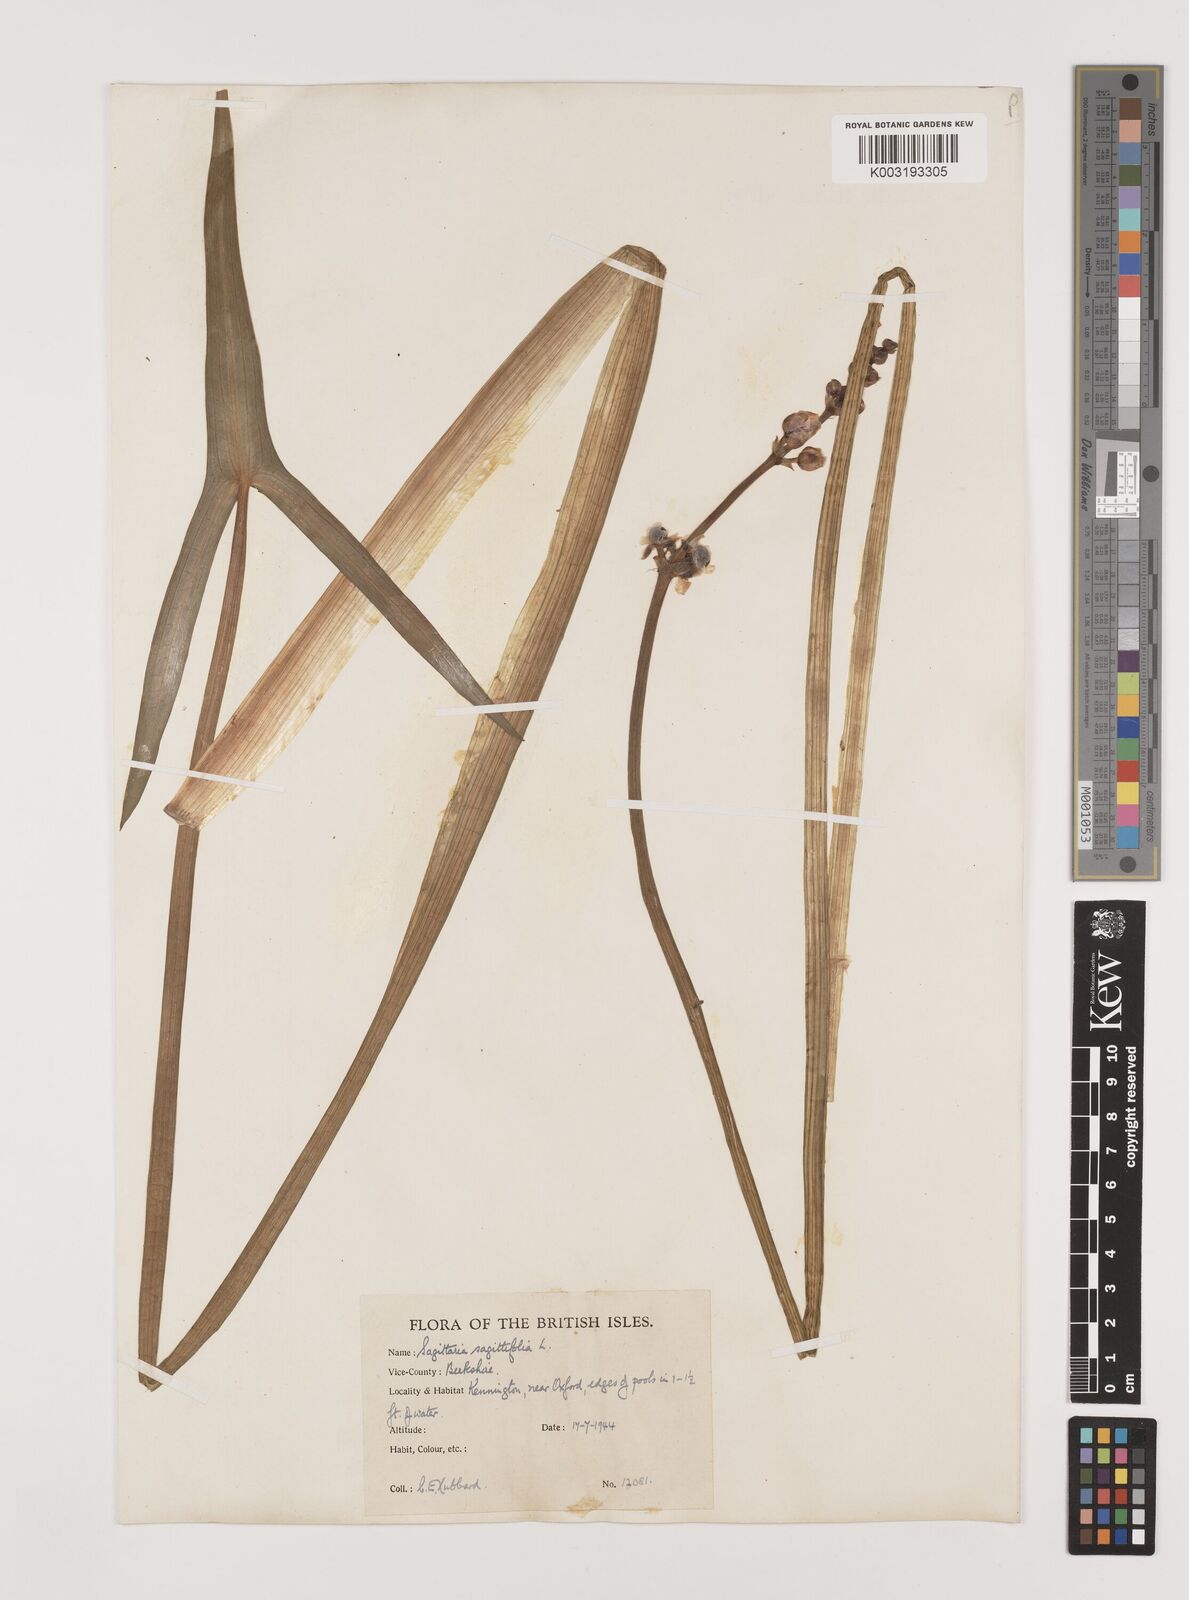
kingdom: Plantae
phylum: Tracheophyta
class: Liliopsida
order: Alismatales
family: Alismataceae
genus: Sagittaria
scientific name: Sagittaria sagittifolia
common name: Arrowhead
